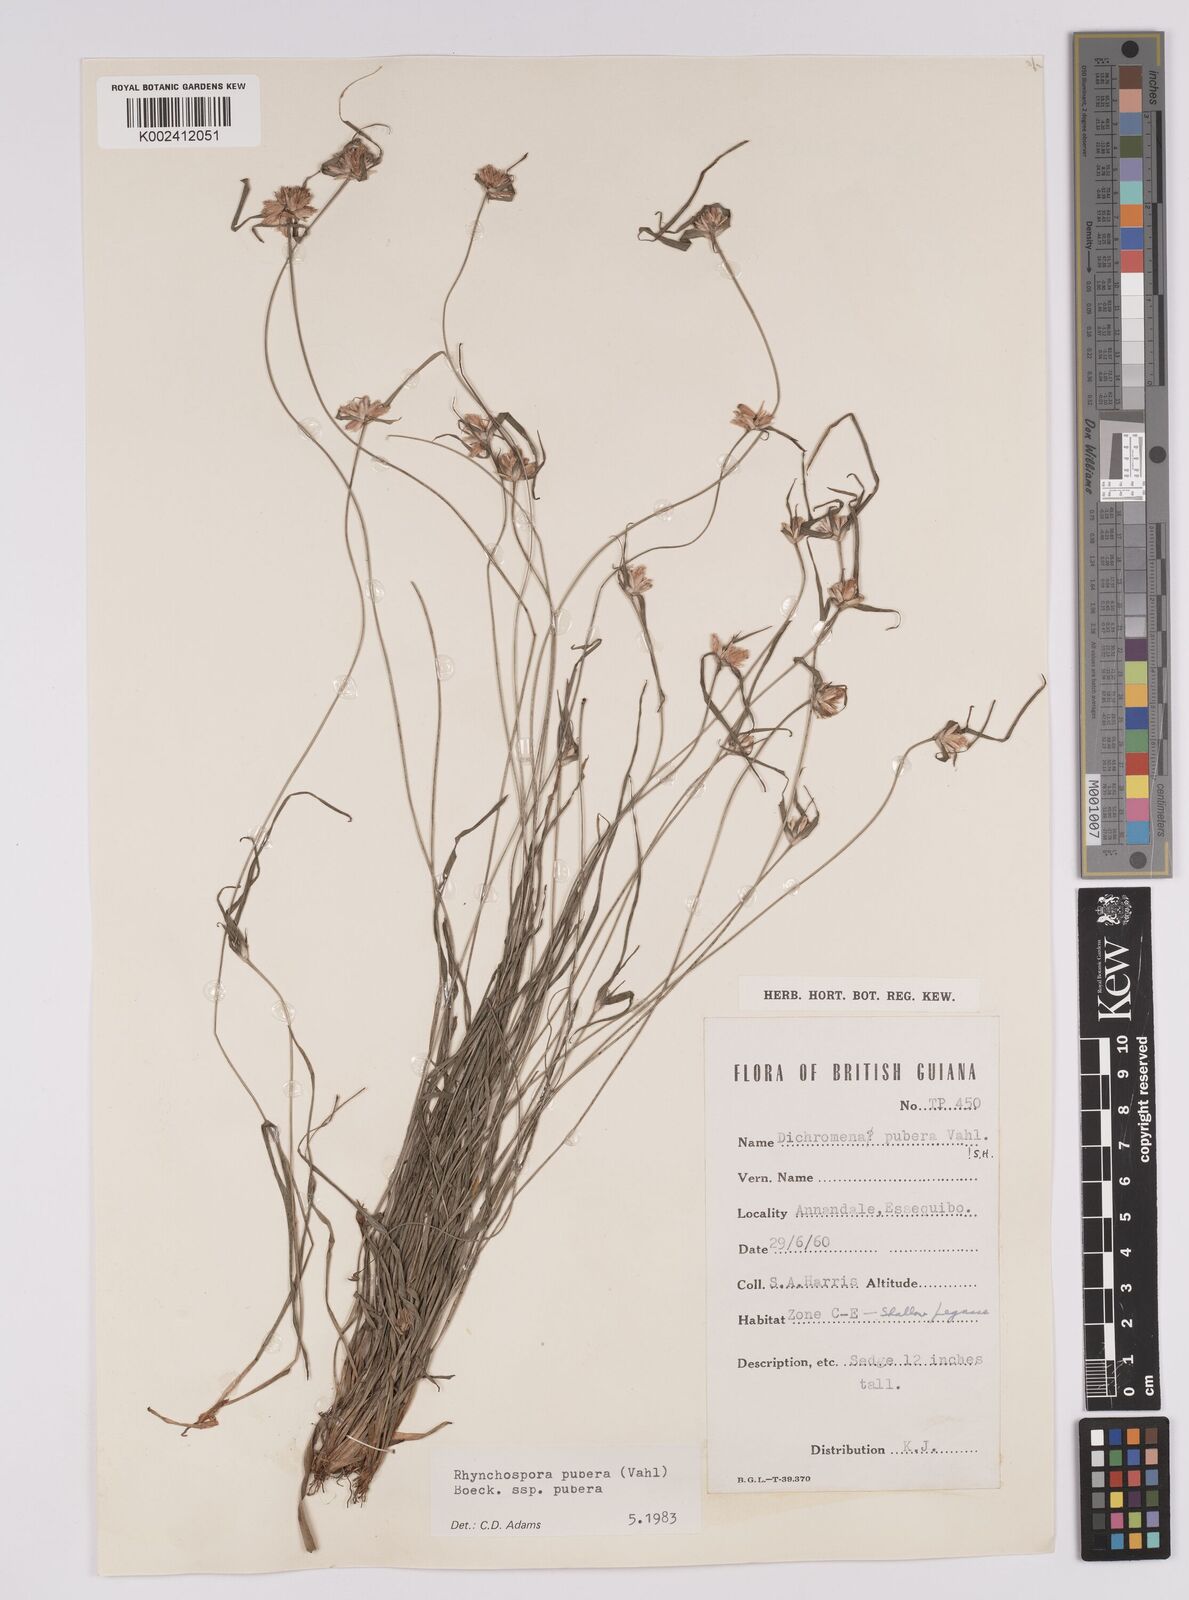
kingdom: Plantae
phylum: Tracheophyta
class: Liliopsida
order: Poales
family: Cyperaceae
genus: Rhynchospora
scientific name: Rhynchospora pubera
